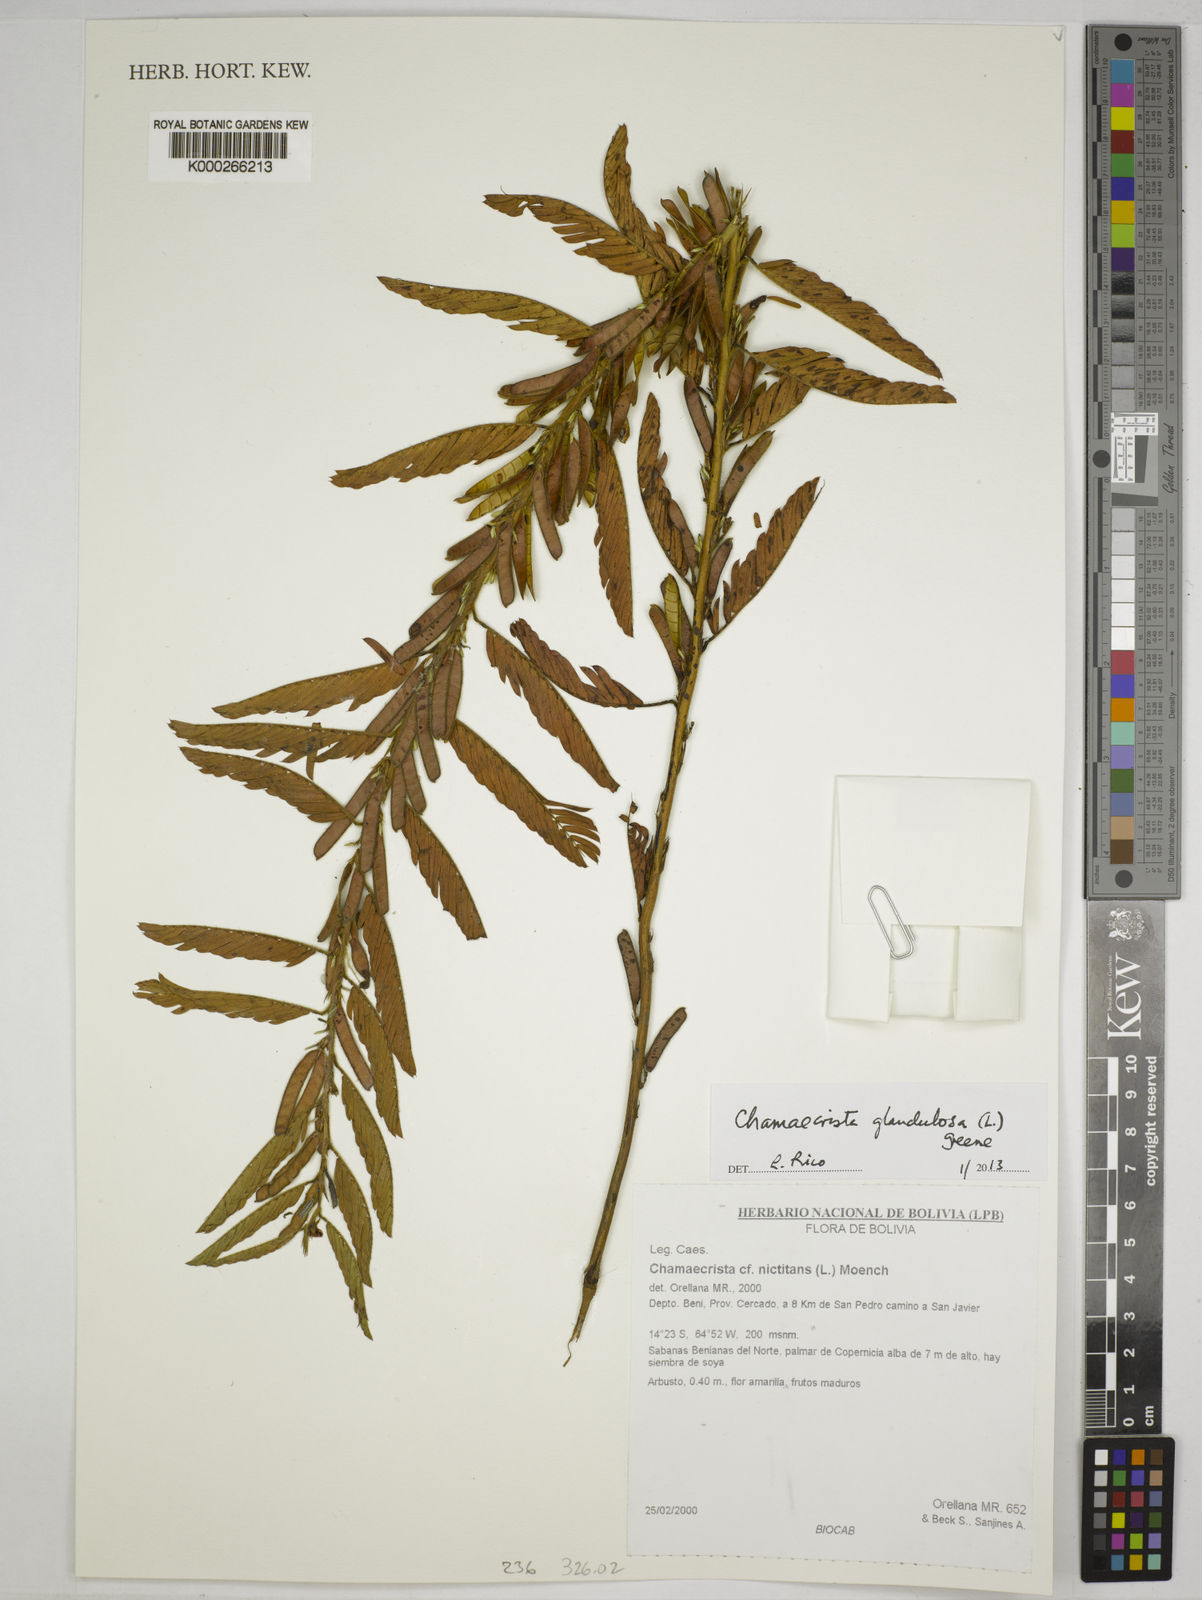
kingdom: Plantae
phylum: Tracheophyta
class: Magnoliopsida
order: Fabales
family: Fabaceae
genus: Chamaecrista
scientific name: Chamaecrista glandulosa
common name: Wild peas
